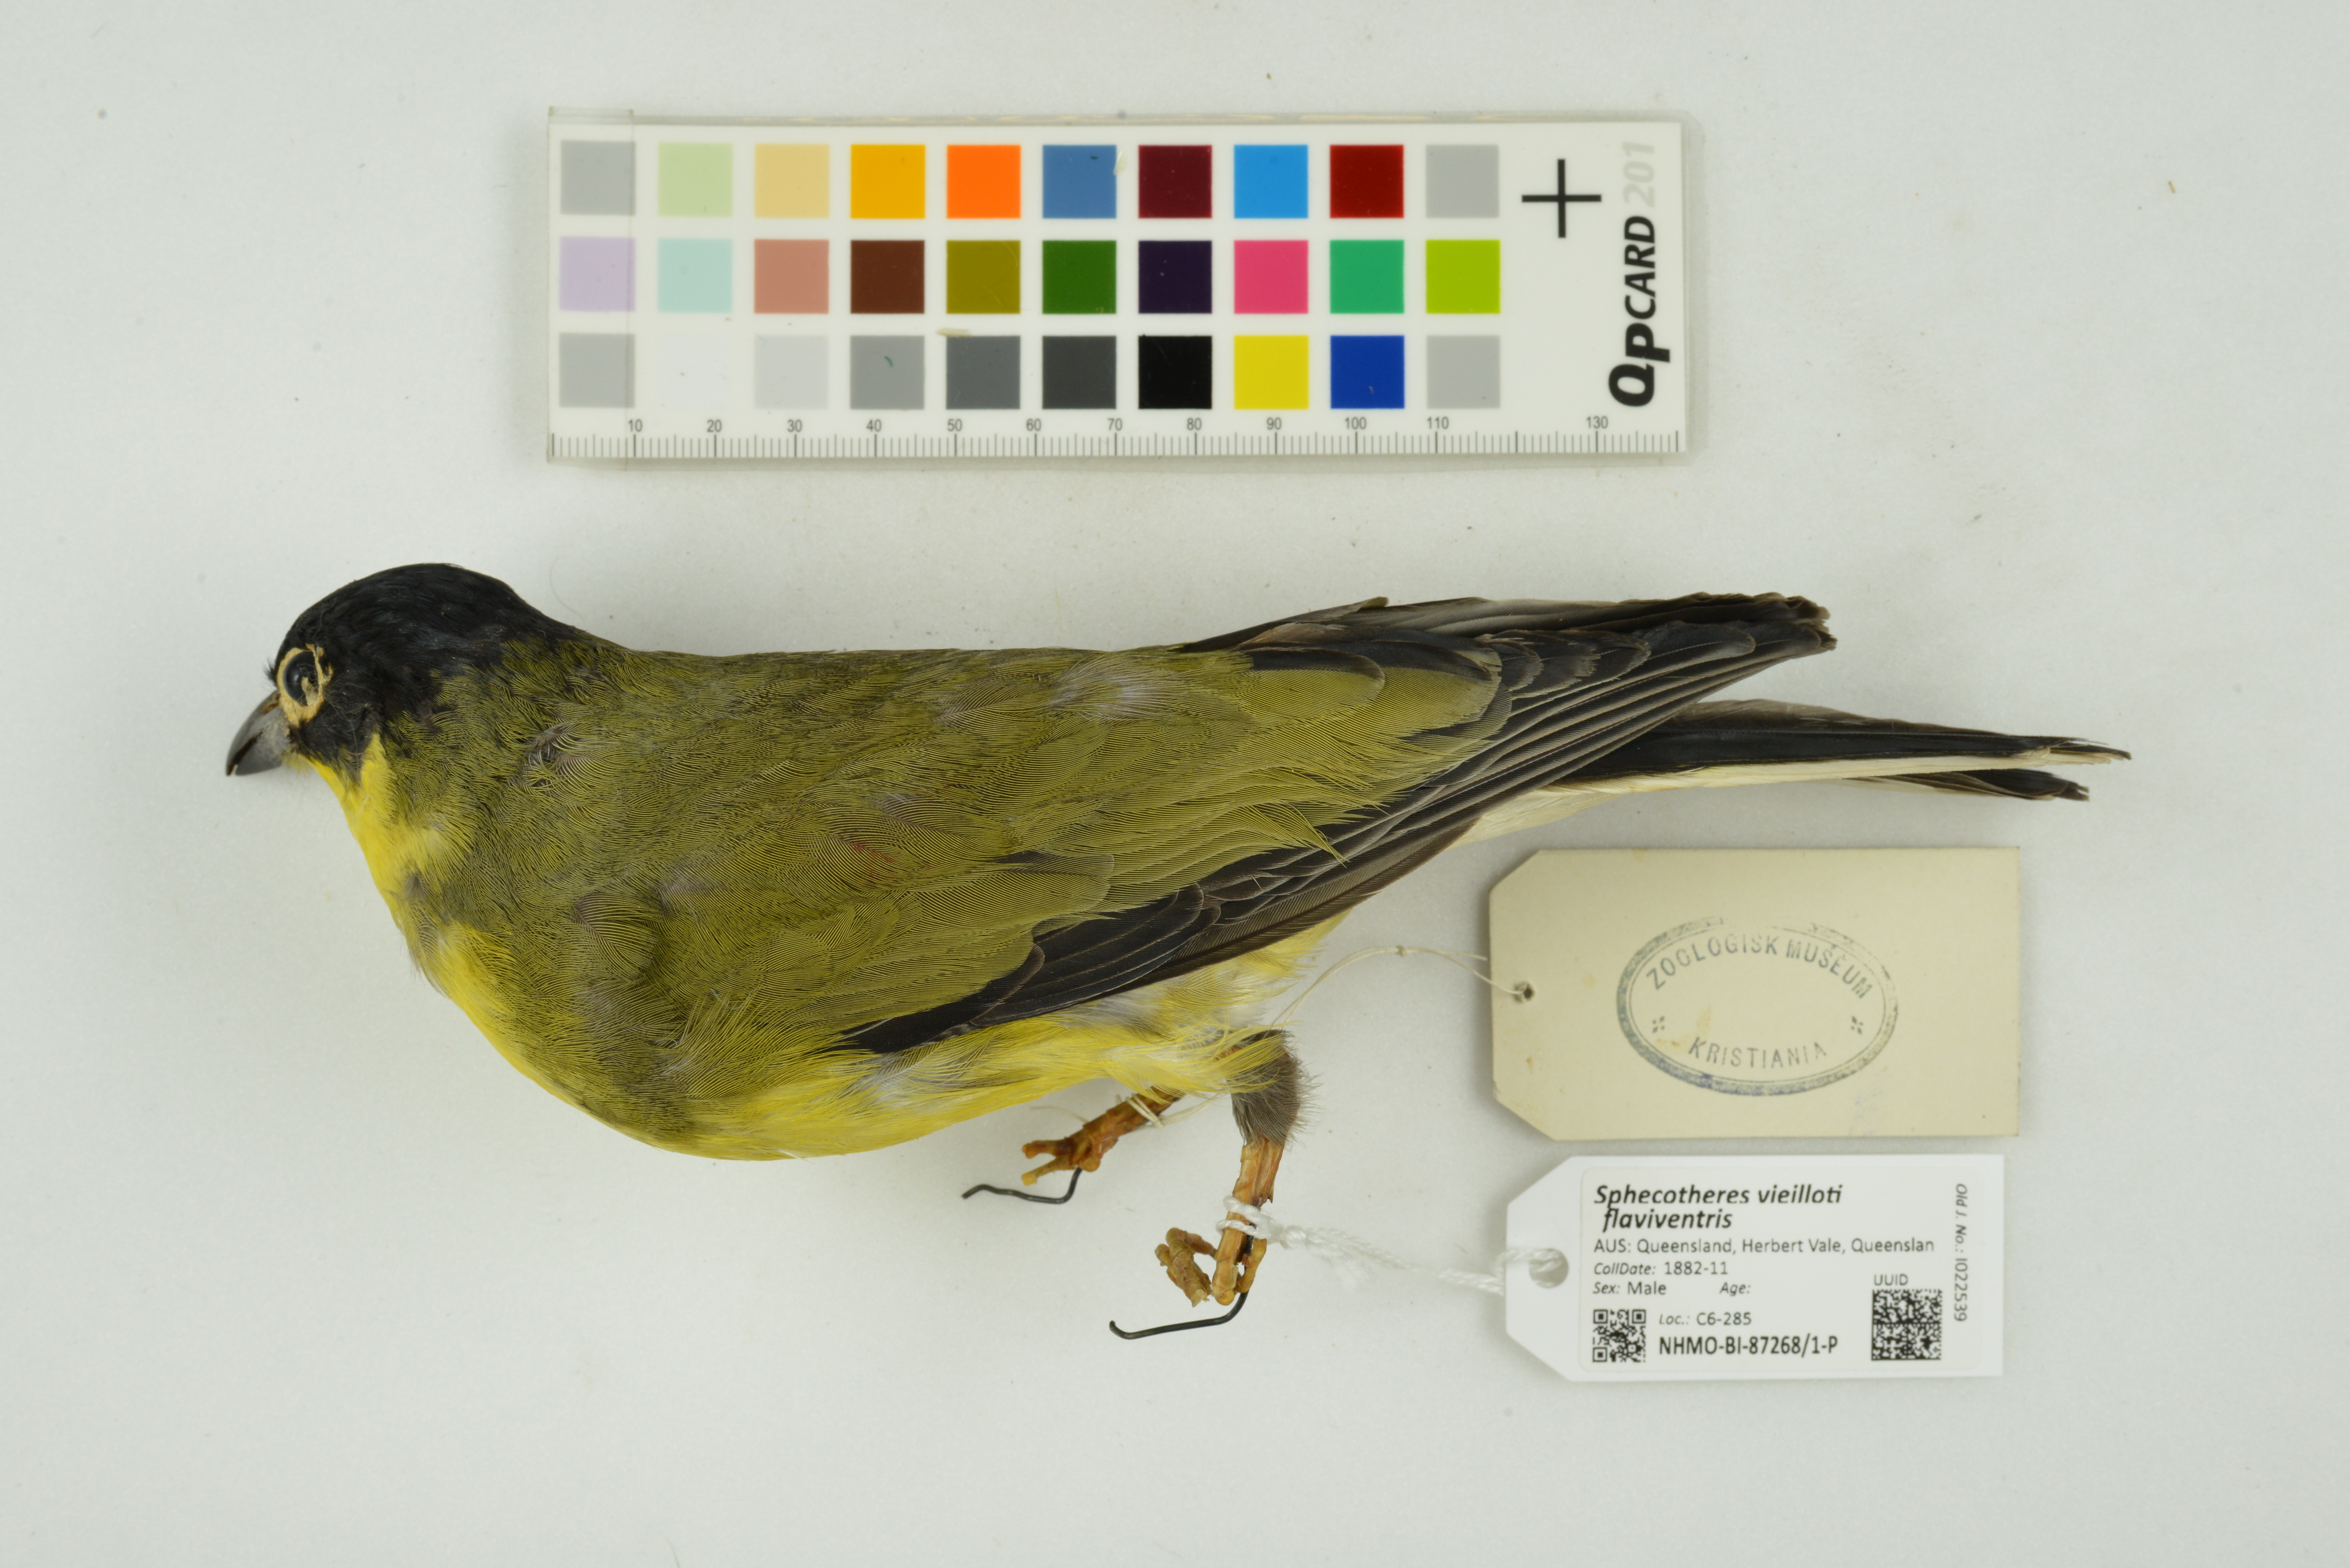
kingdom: Animalia
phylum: Chordata
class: Aves
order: Passeriformes
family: Oriolidae
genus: Sphecotheres
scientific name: Sphecotheres vieilloti
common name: Australasian figbird
